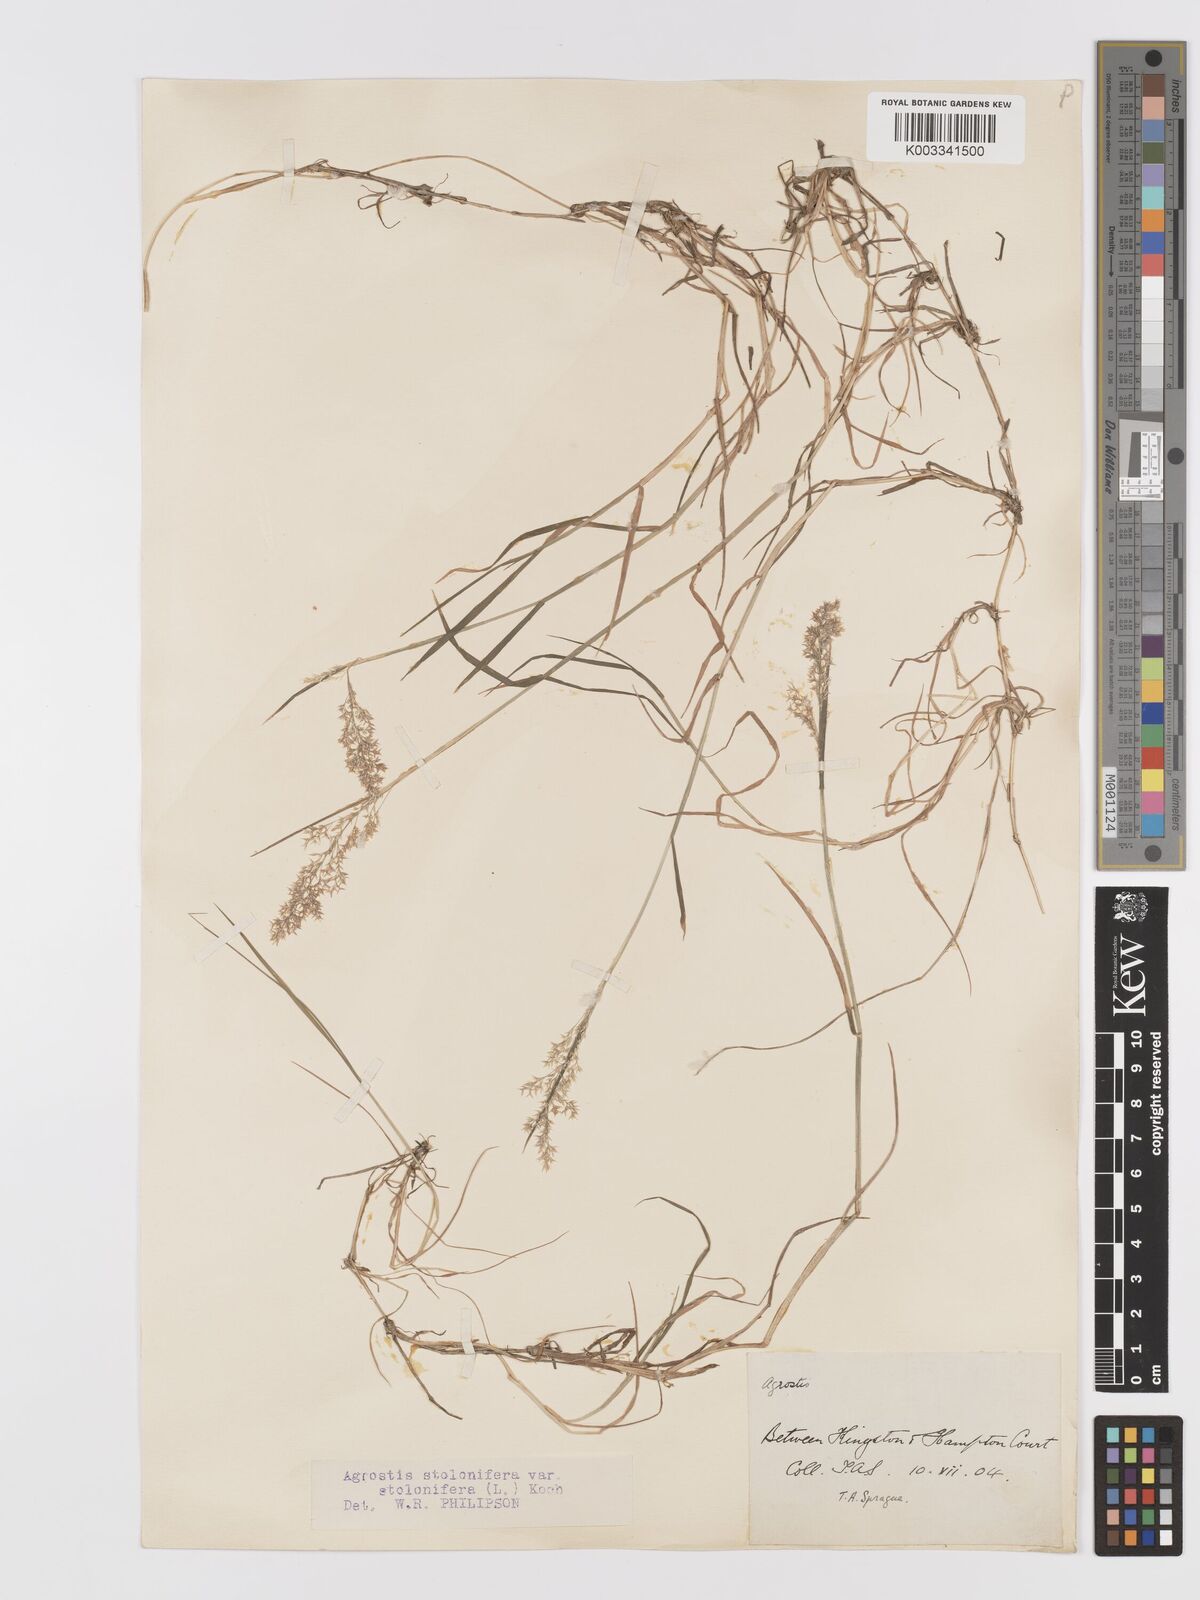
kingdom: Plantae
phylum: Tracheophyta
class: Liliopsida
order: Poales
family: Poaceae
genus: Agrostis
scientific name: Agrostis stolonifera
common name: Creeping bentgrass
